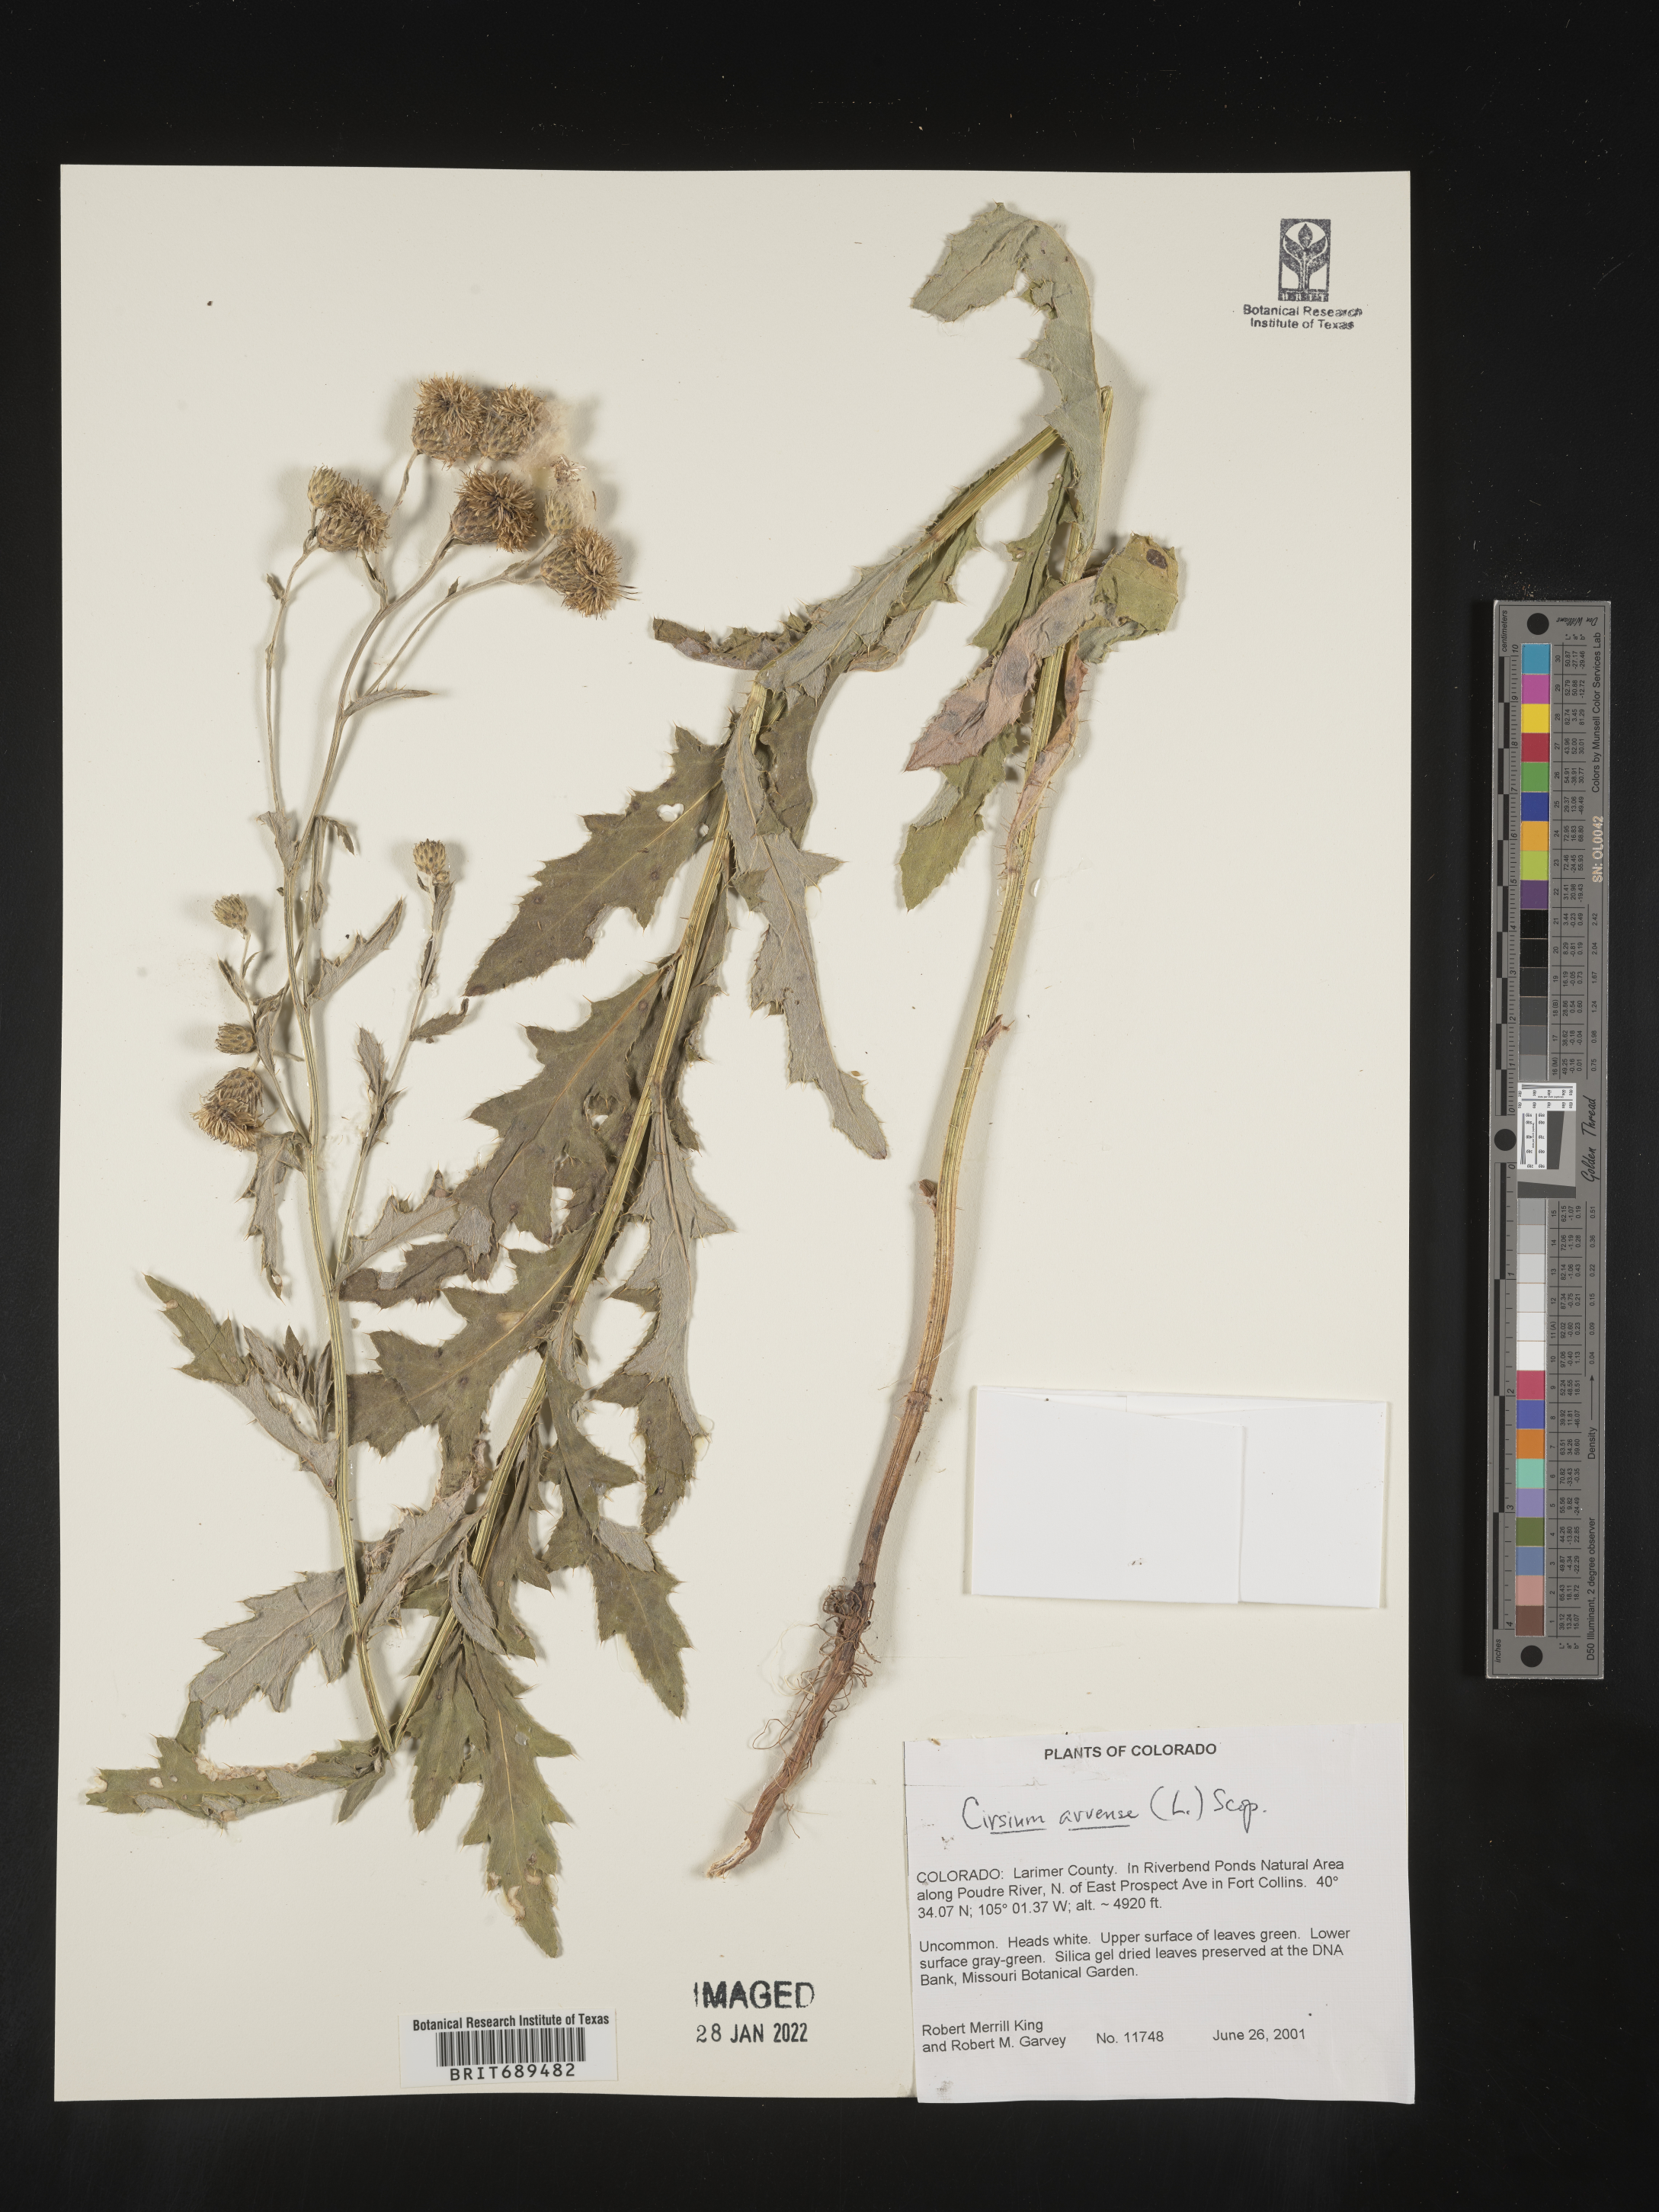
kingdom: Plantae
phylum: Tracheophyta
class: Magnoliopsida
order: Asterales
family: Asteraceae
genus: Cirsium
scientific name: Cirsium arvense
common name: Creeping thistle
